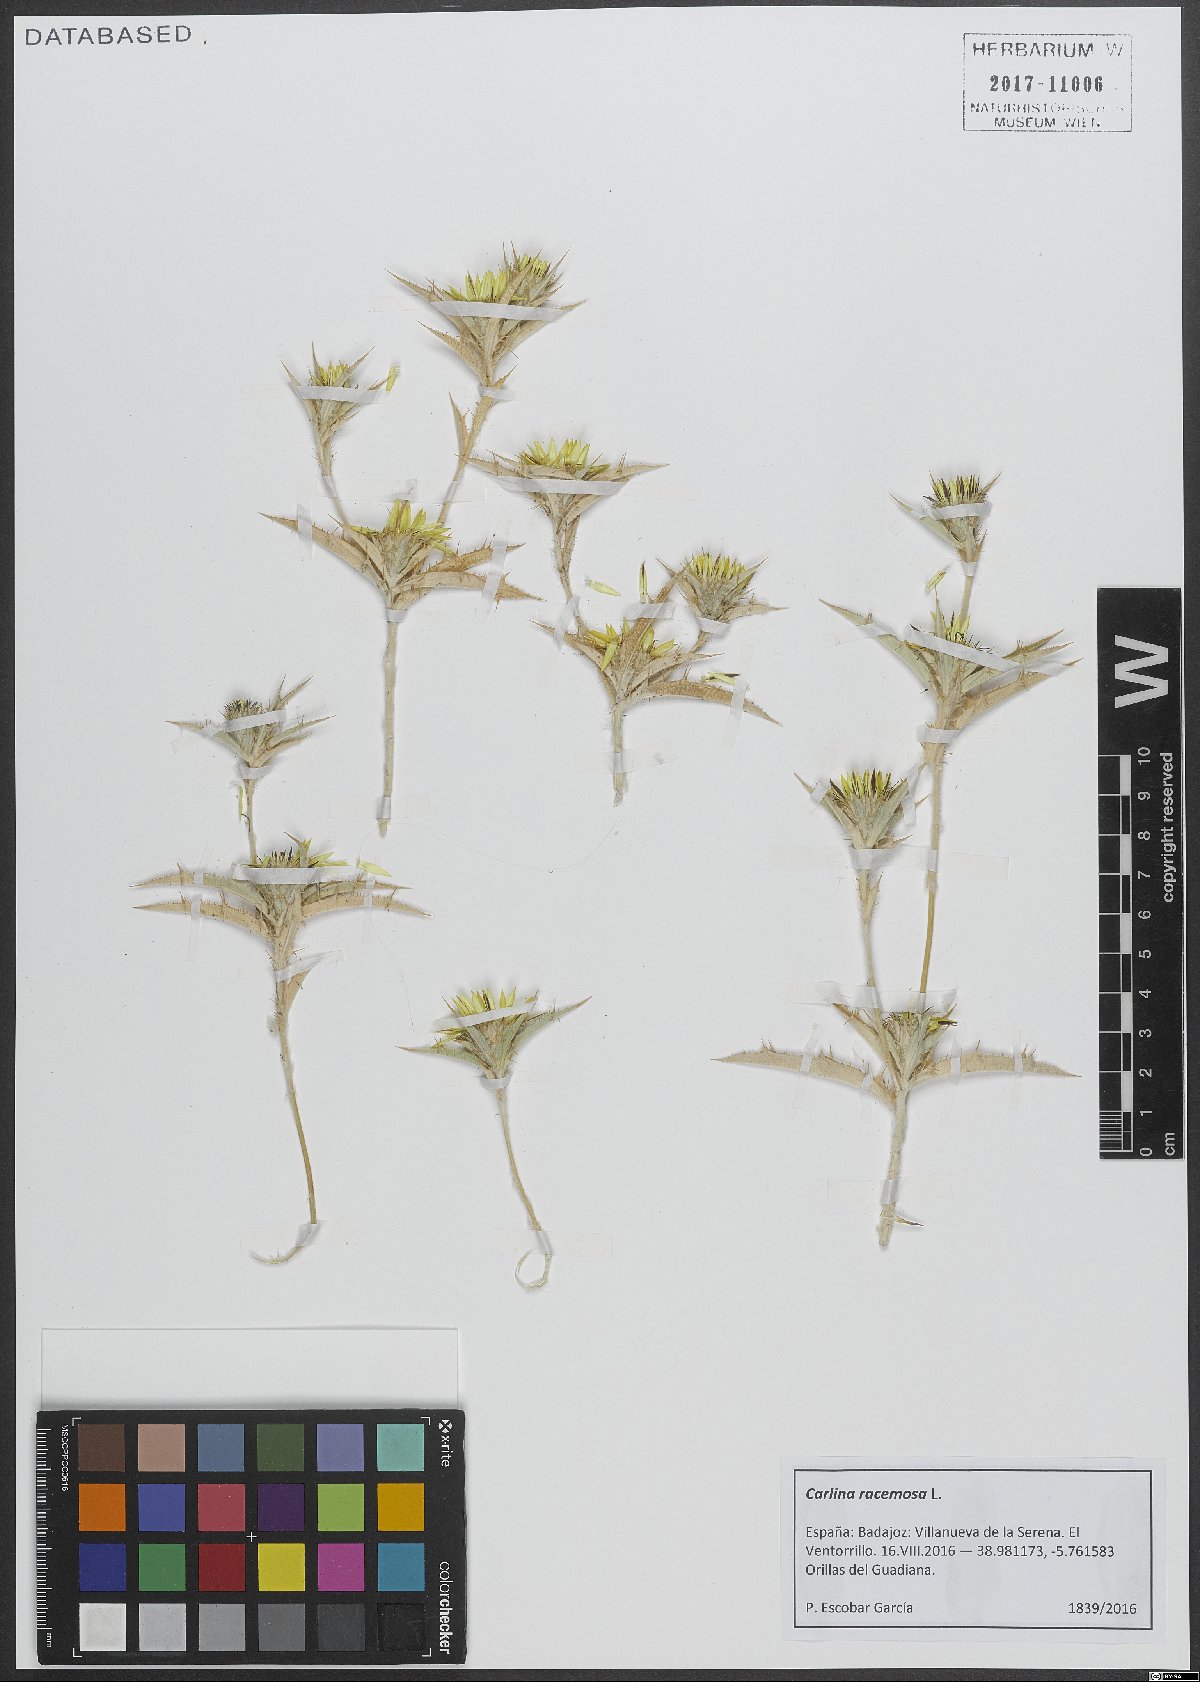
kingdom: Plantae
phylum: Tracheophyta
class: Magnoliopsida
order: Asterales
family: Asteraceae
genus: Carlina
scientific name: Carlina racemosa
